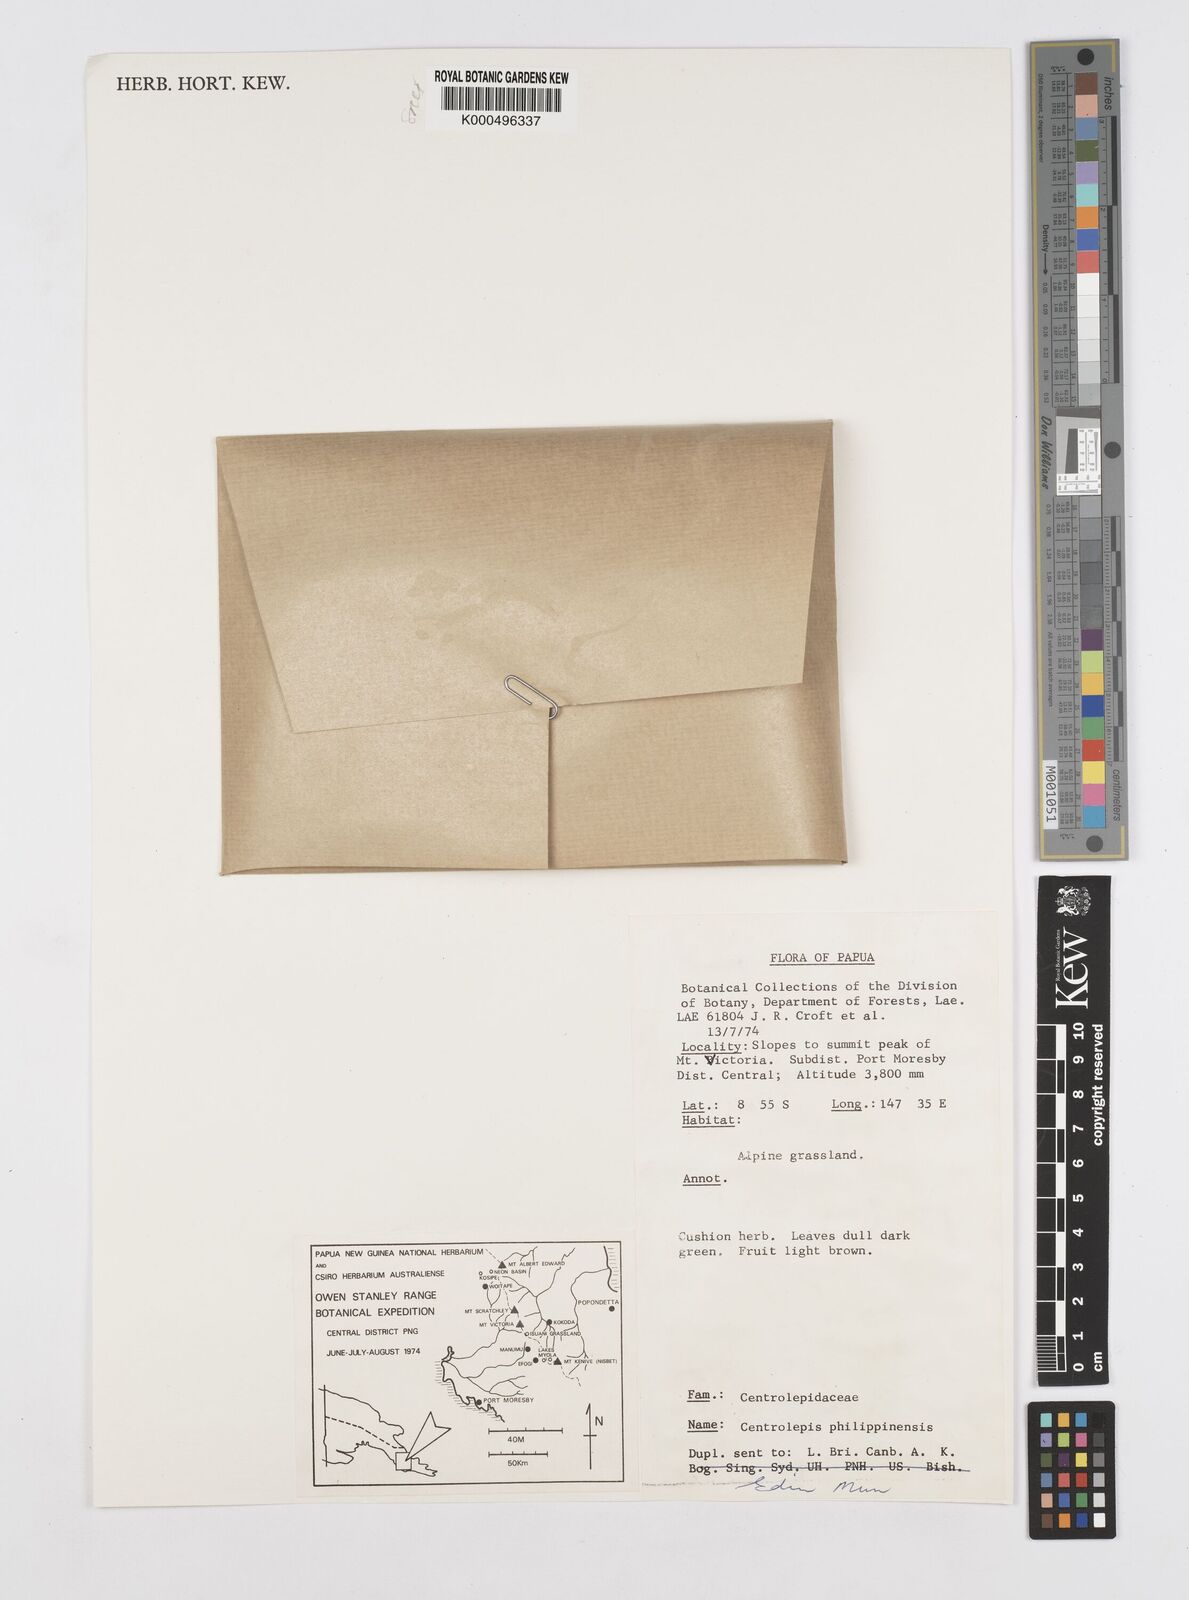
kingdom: Plantae
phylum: Tracheophyta
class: Liliopsida
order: Poales
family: Restionaceae
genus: Centrolepis
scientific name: Centrolepis philippinensis
